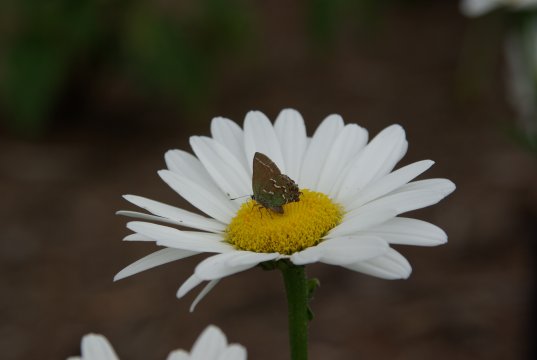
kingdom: Animalia
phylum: Arthropoda
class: Insecta
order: Lepidoptera
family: Lycaenidae
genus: Mitoura
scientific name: Mitoura gryneus
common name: Juniper Hairstreak
